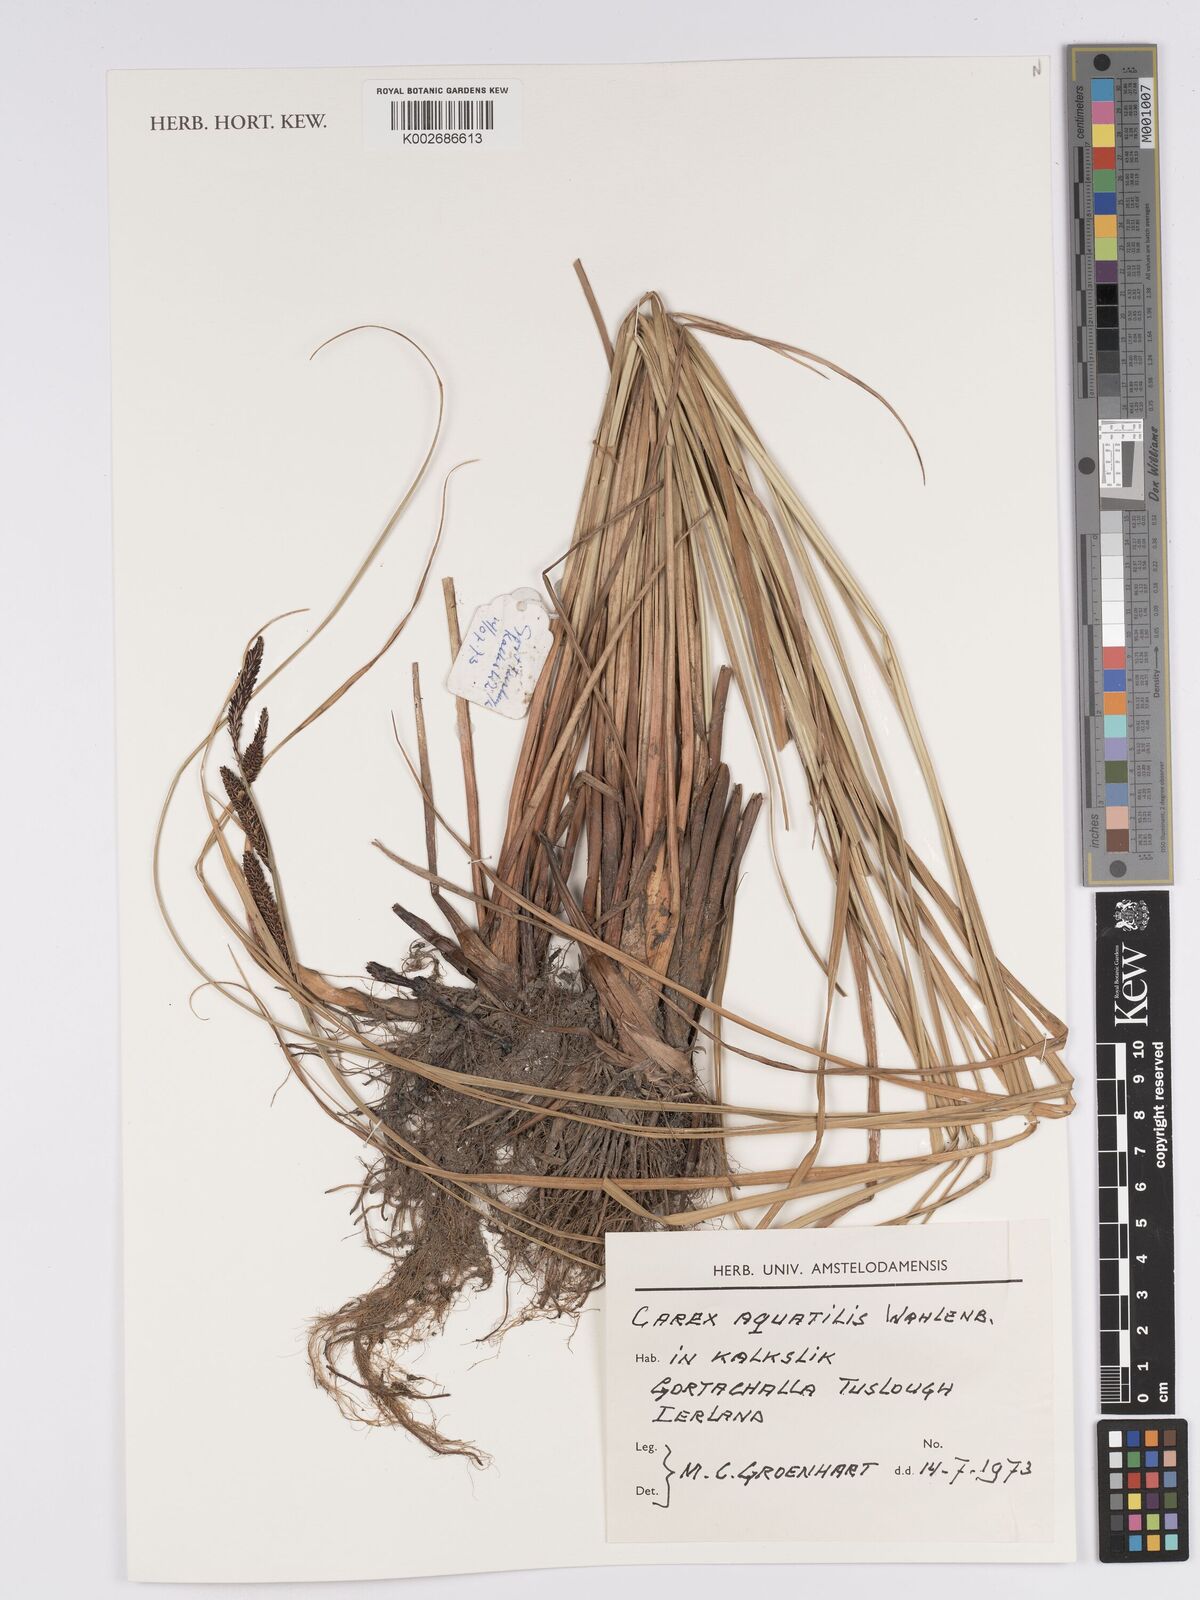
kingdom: Plantae
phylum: Tracheophyta
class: Liliopsida
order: Poales
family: Cyperaceae
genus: Carex
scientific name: Carex aquatilis
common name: Water sedge
